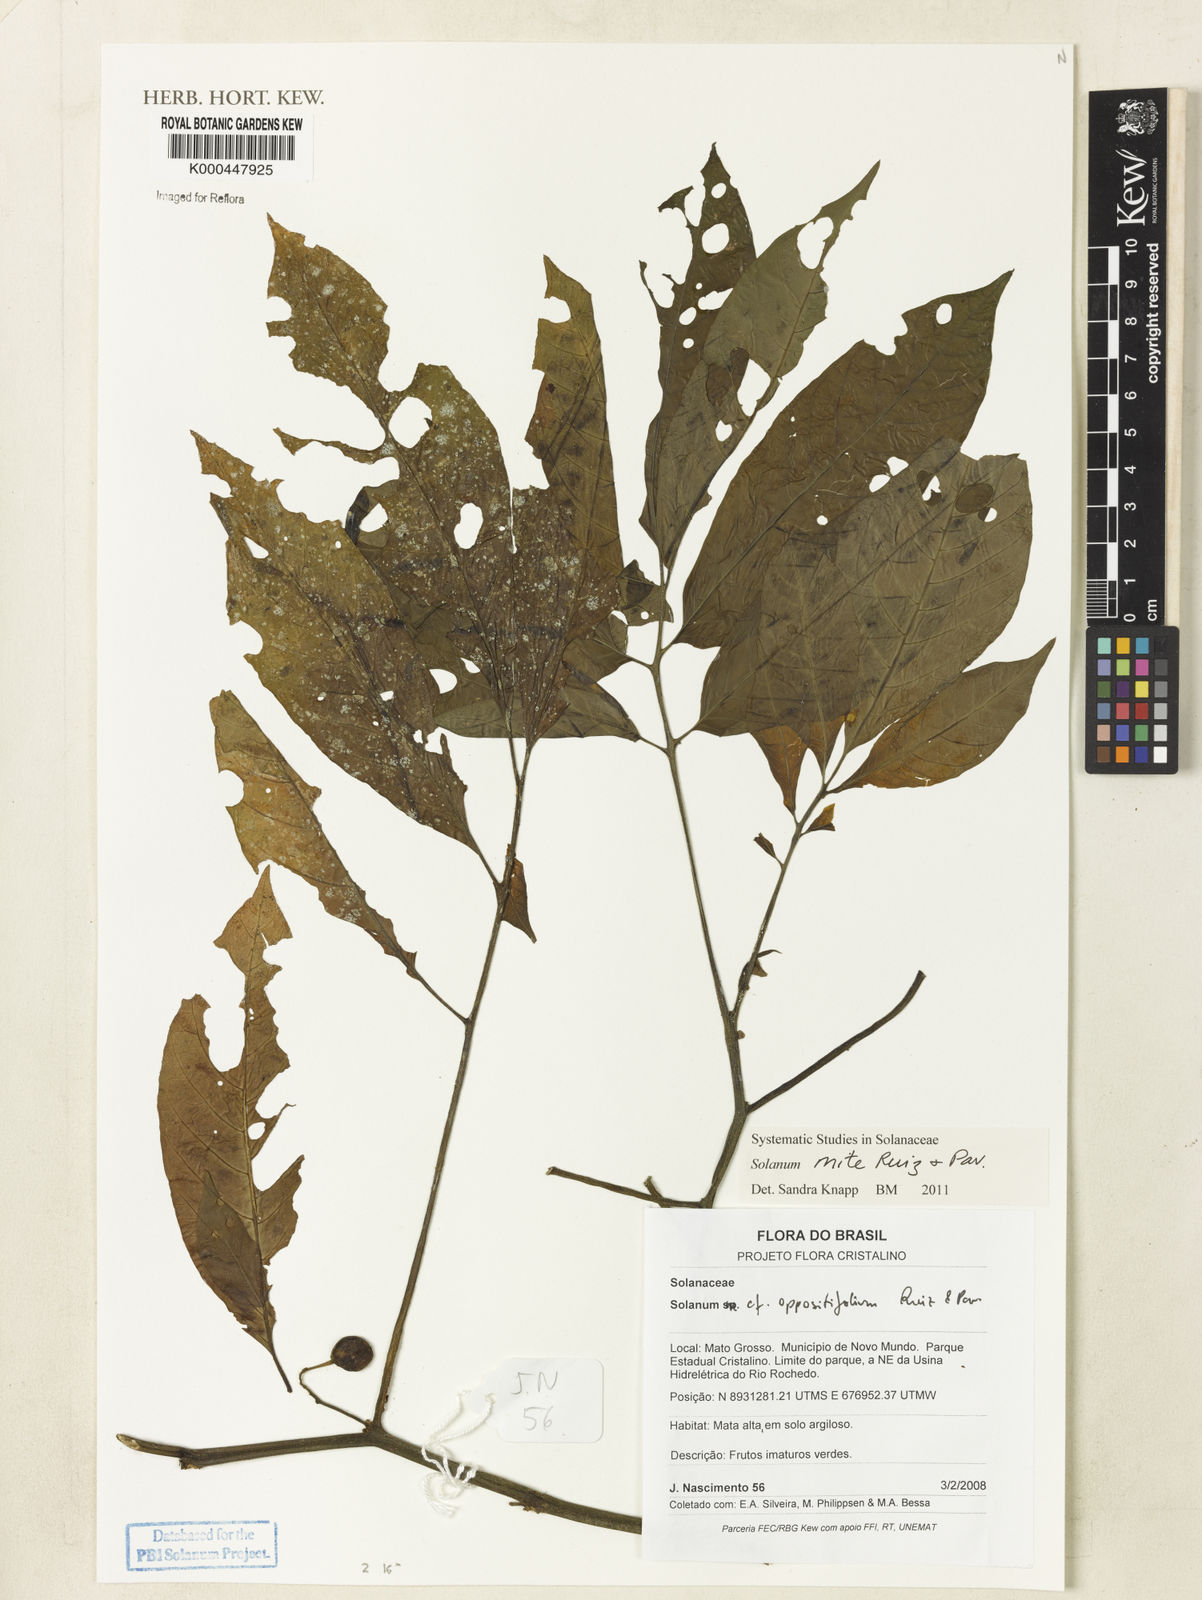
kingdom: Plantae
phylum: Tracheophyta
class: Magnoliopsida
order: Solanales
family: Solanaceae
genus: Solanum
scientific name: Solanum oppositifolium
